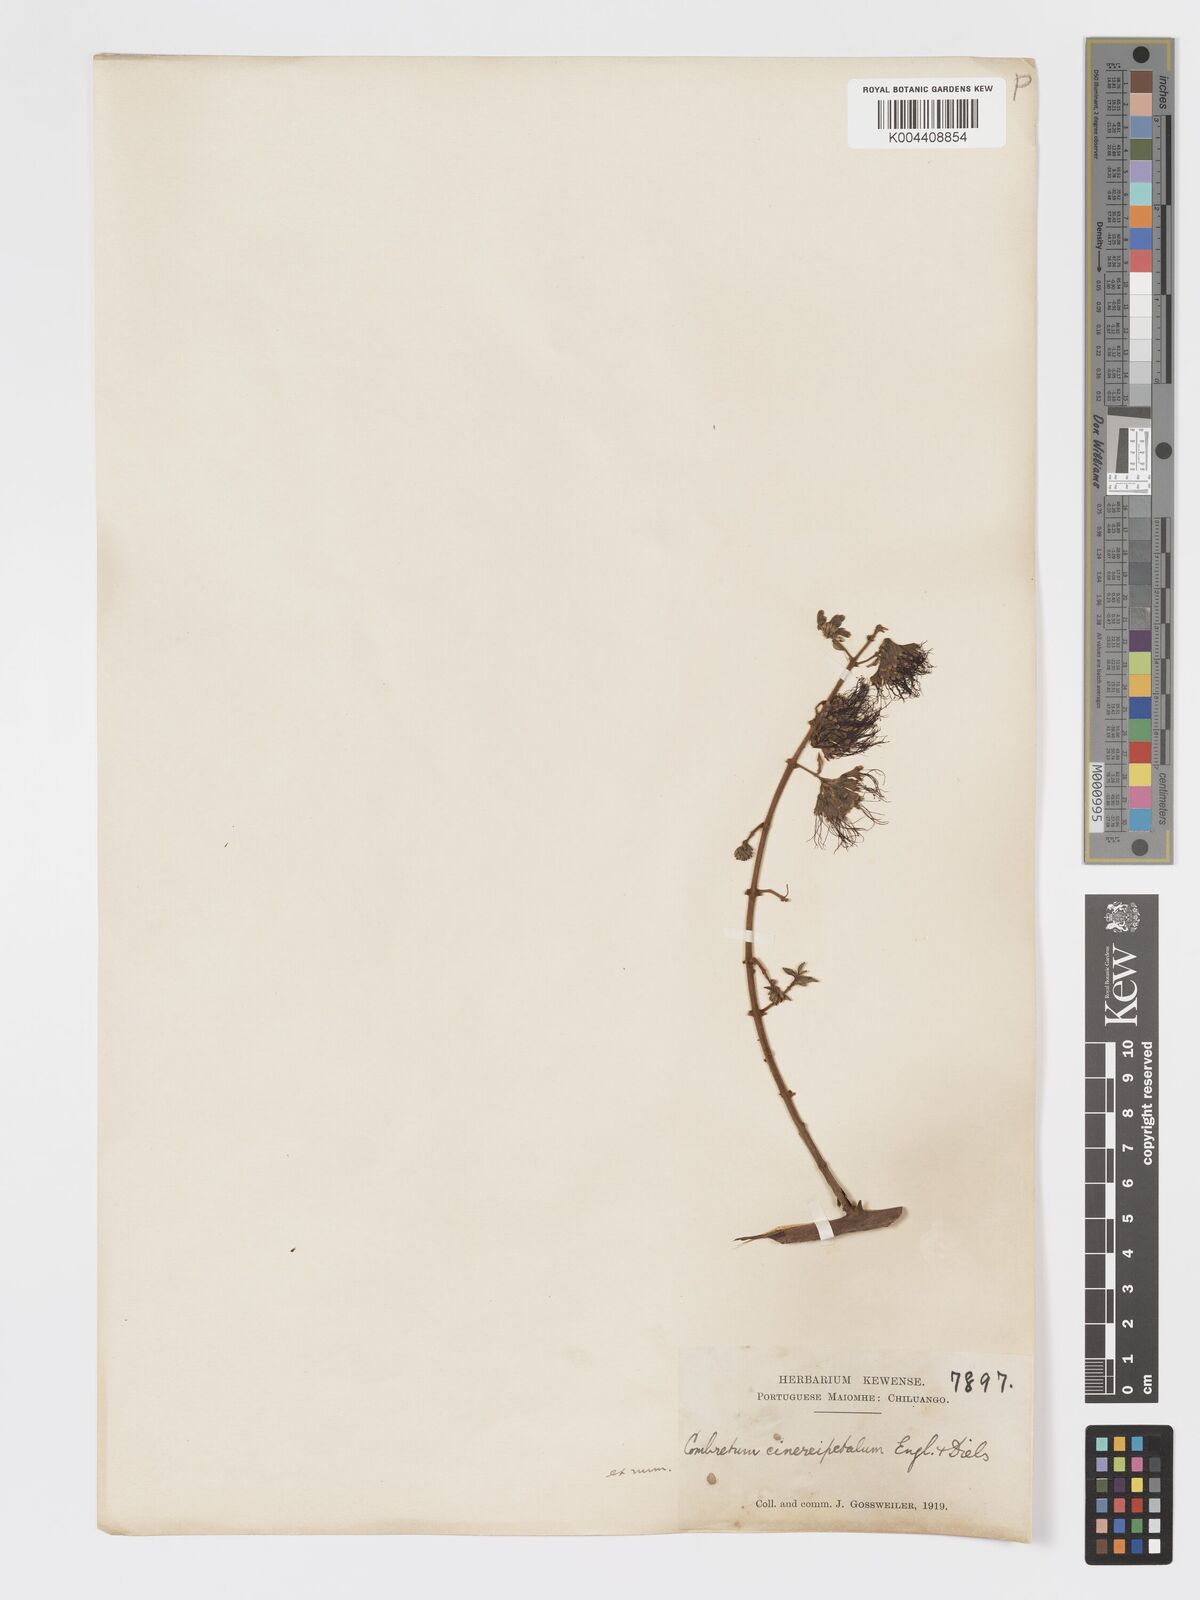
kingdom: Plantae
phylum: Tracheophyta
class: Magnoliopsida
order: Myrtales
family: Combretaceae
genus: Combretum
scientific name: Combretum cinereopetalum
